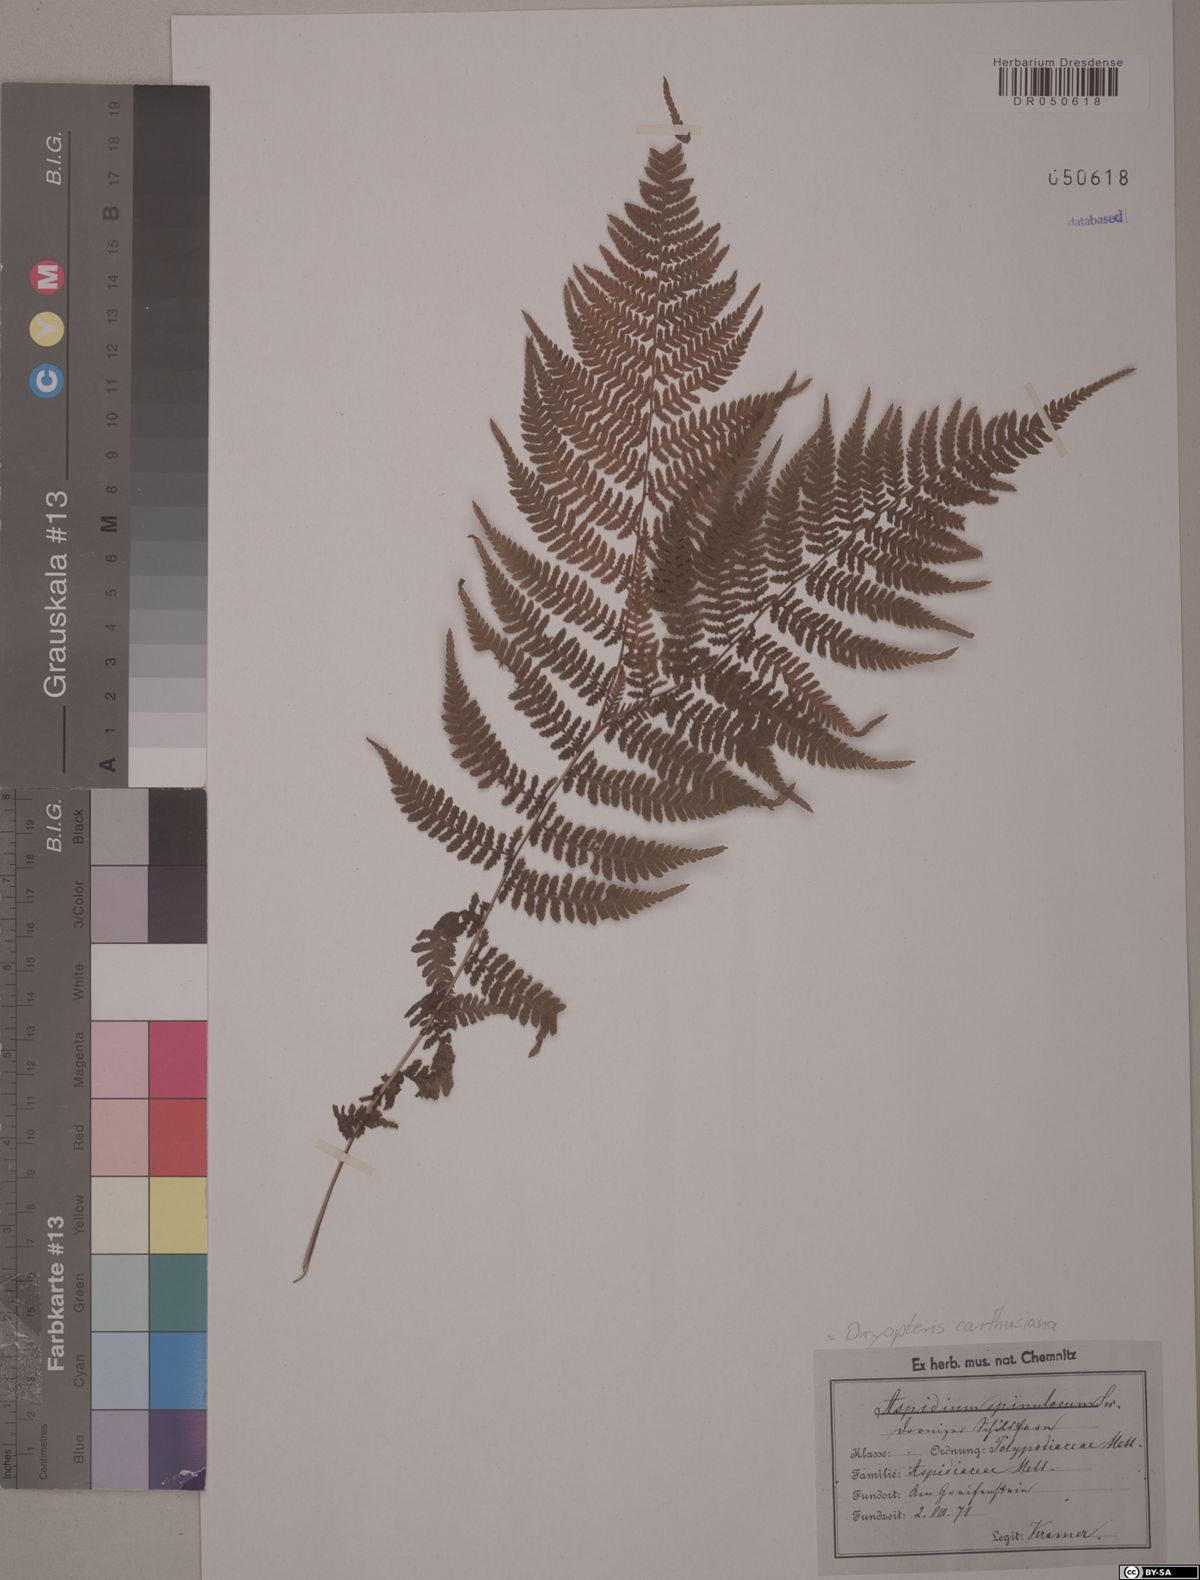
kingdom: Plantae
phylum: Tracheophyta
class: Polypodiopsida
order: Polypodiales
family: Dryopteridaceae
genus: Dryopteris
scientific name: Dryopteris carthusiana
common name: Narrow buckler-fern
